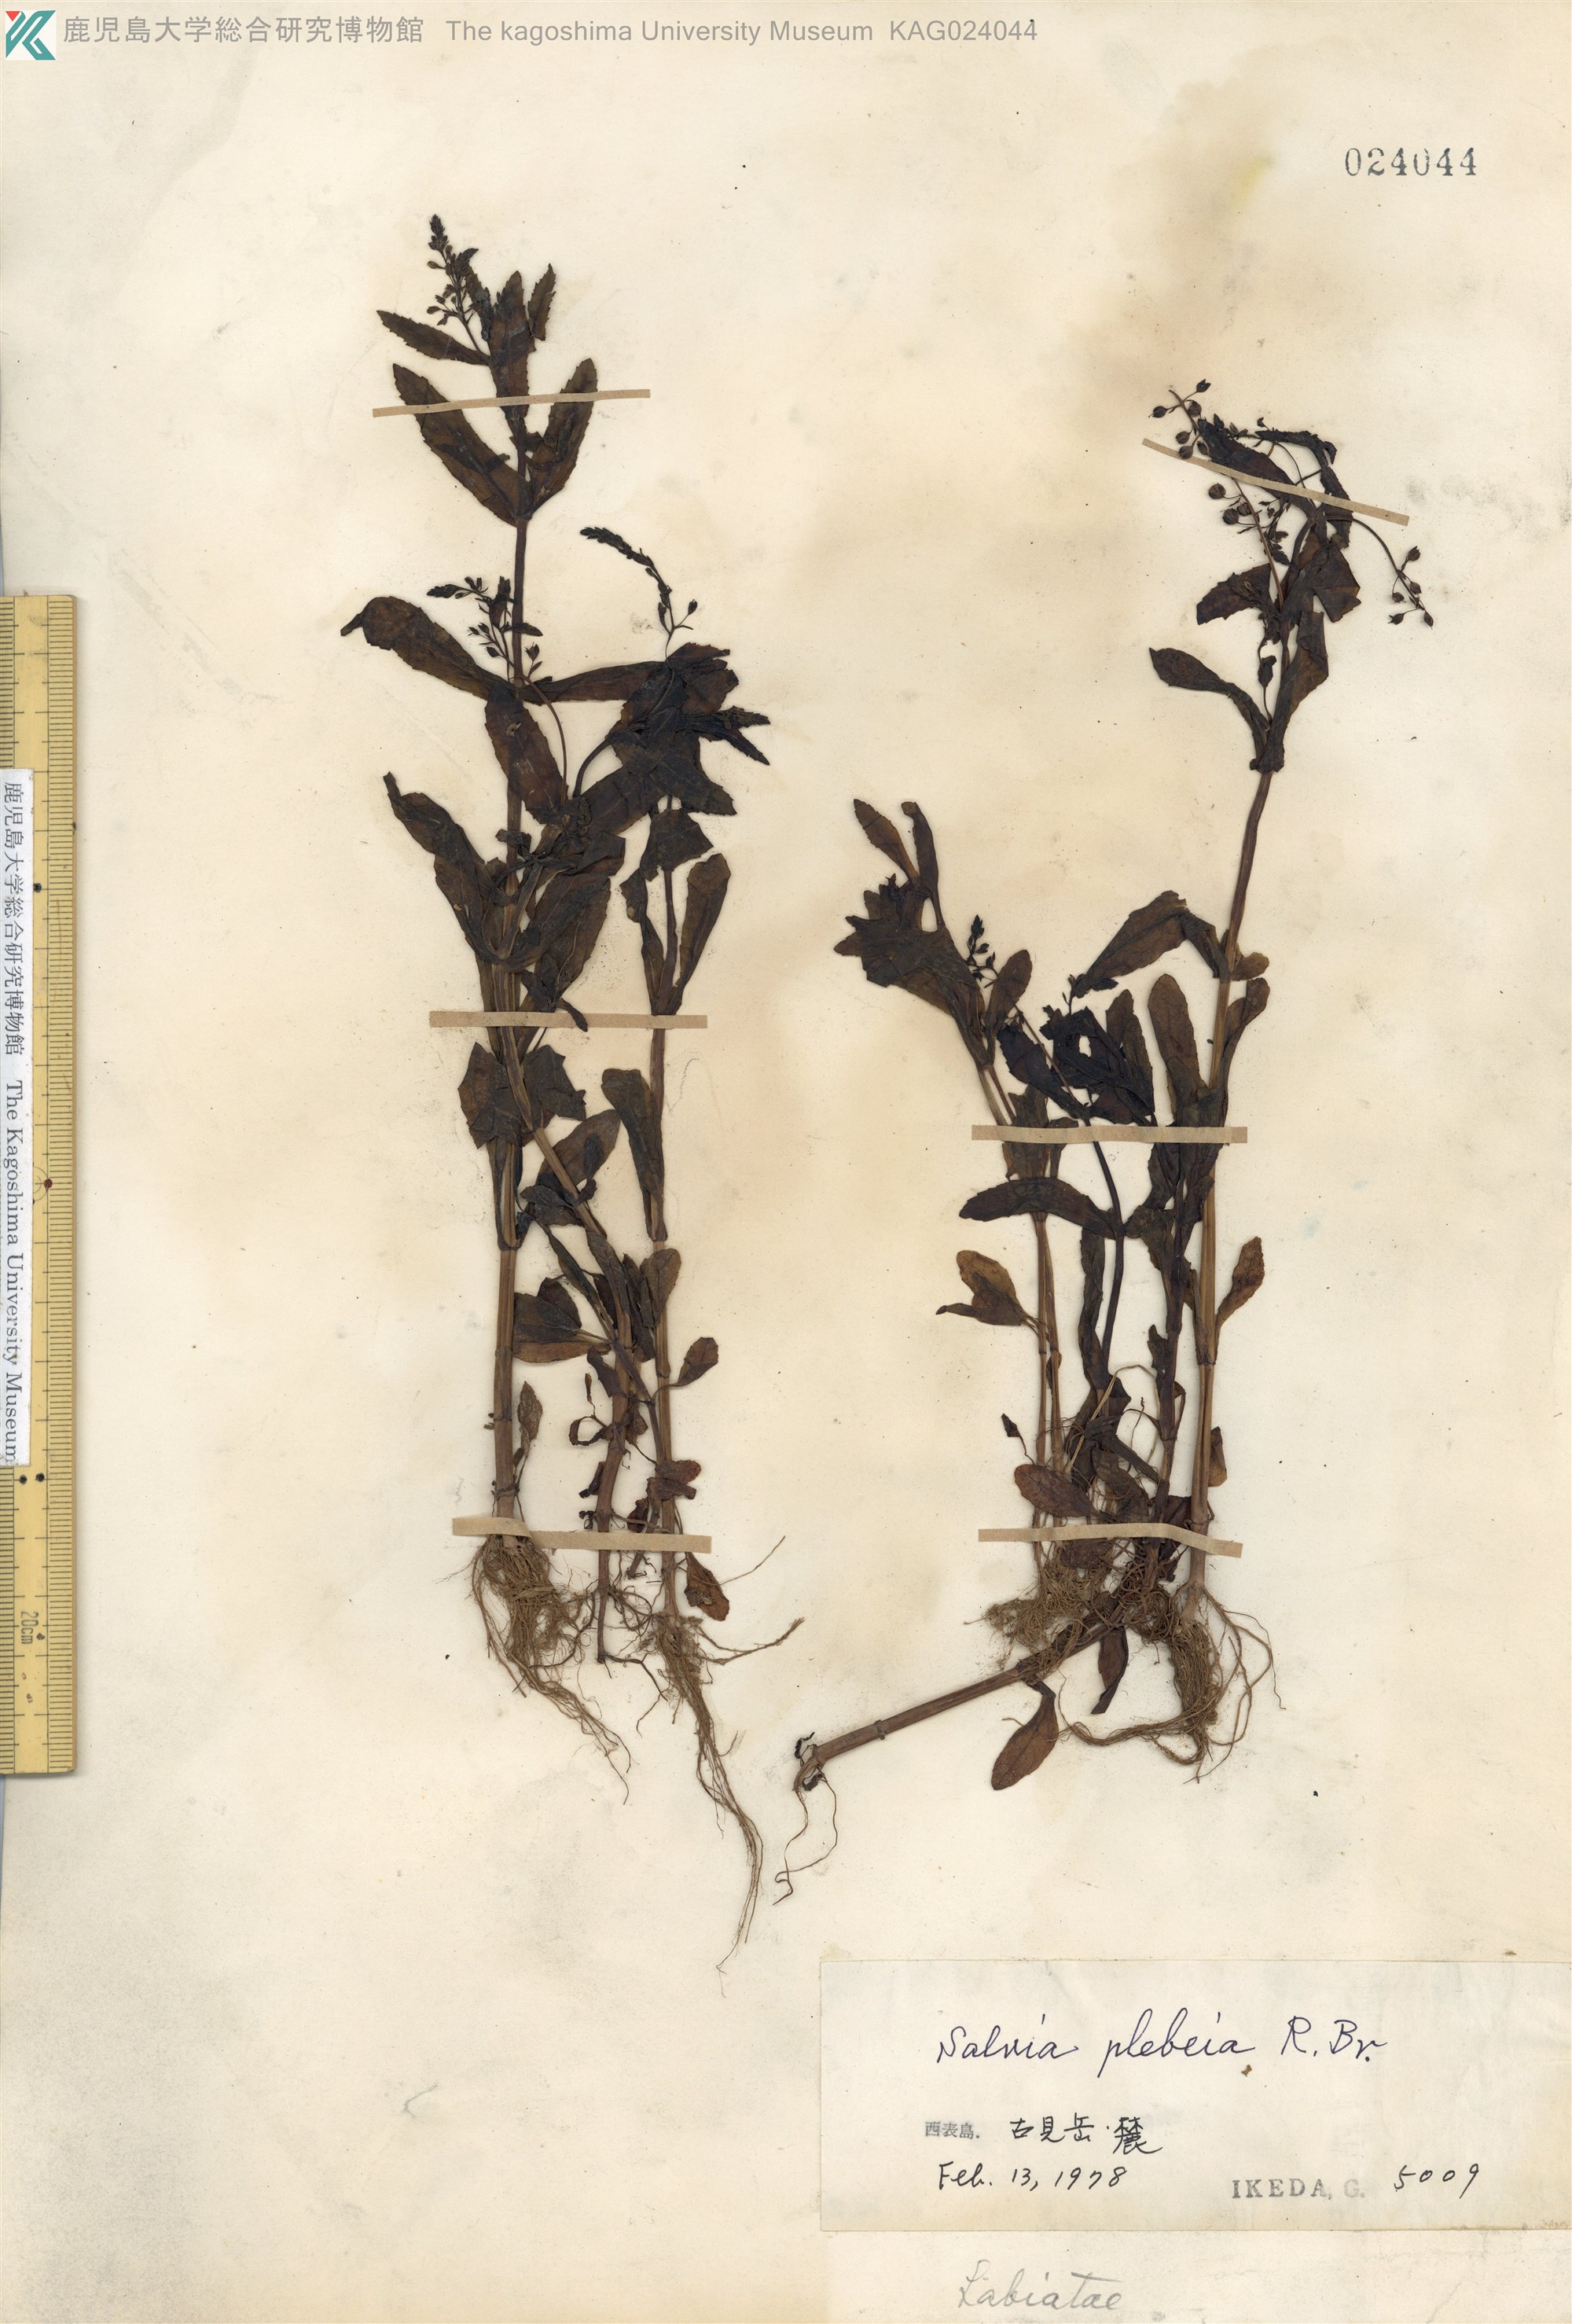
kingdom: Plantae
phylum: Tracheophyta
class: Magnoliopsida
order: Lamiales
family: Lamiaceae
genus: Salvia
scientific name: Salvia plebeia
